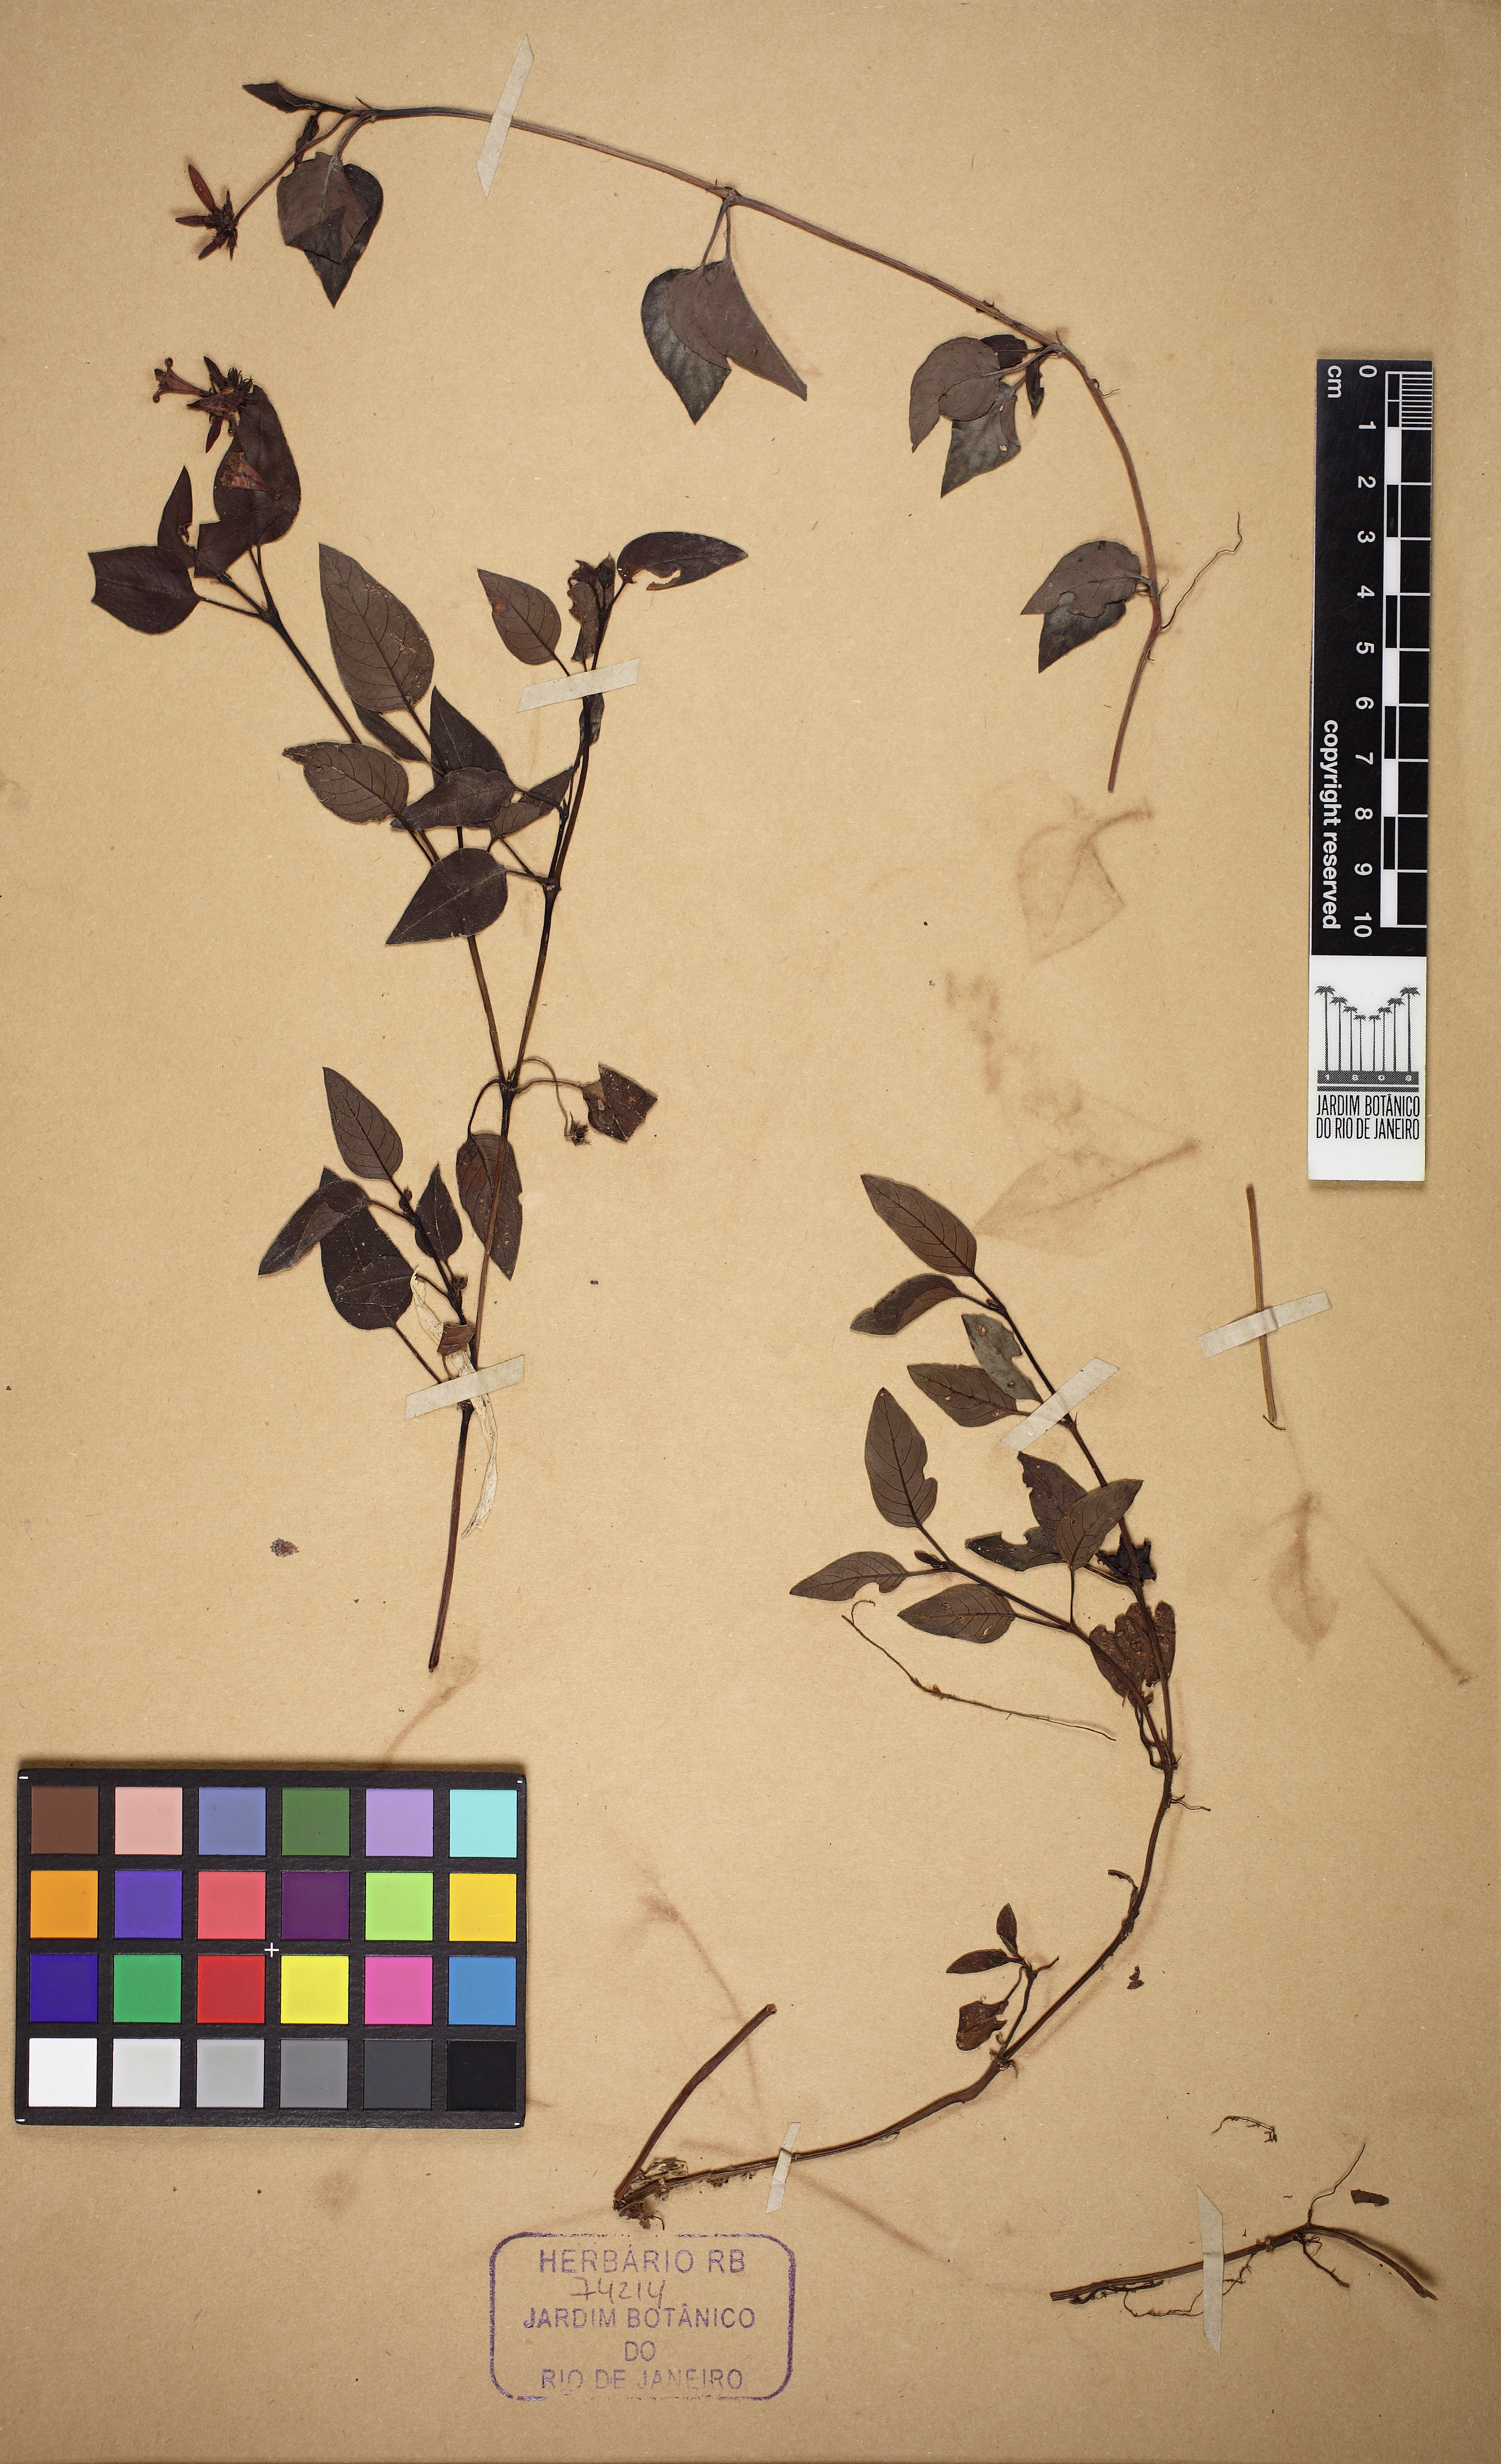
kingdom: Plantae
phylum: Tracheophyta
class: Magnoliopsida
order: Gentianales
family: Rubiaceae
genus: Coccocypselum
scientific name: Coccocypselum condalia
